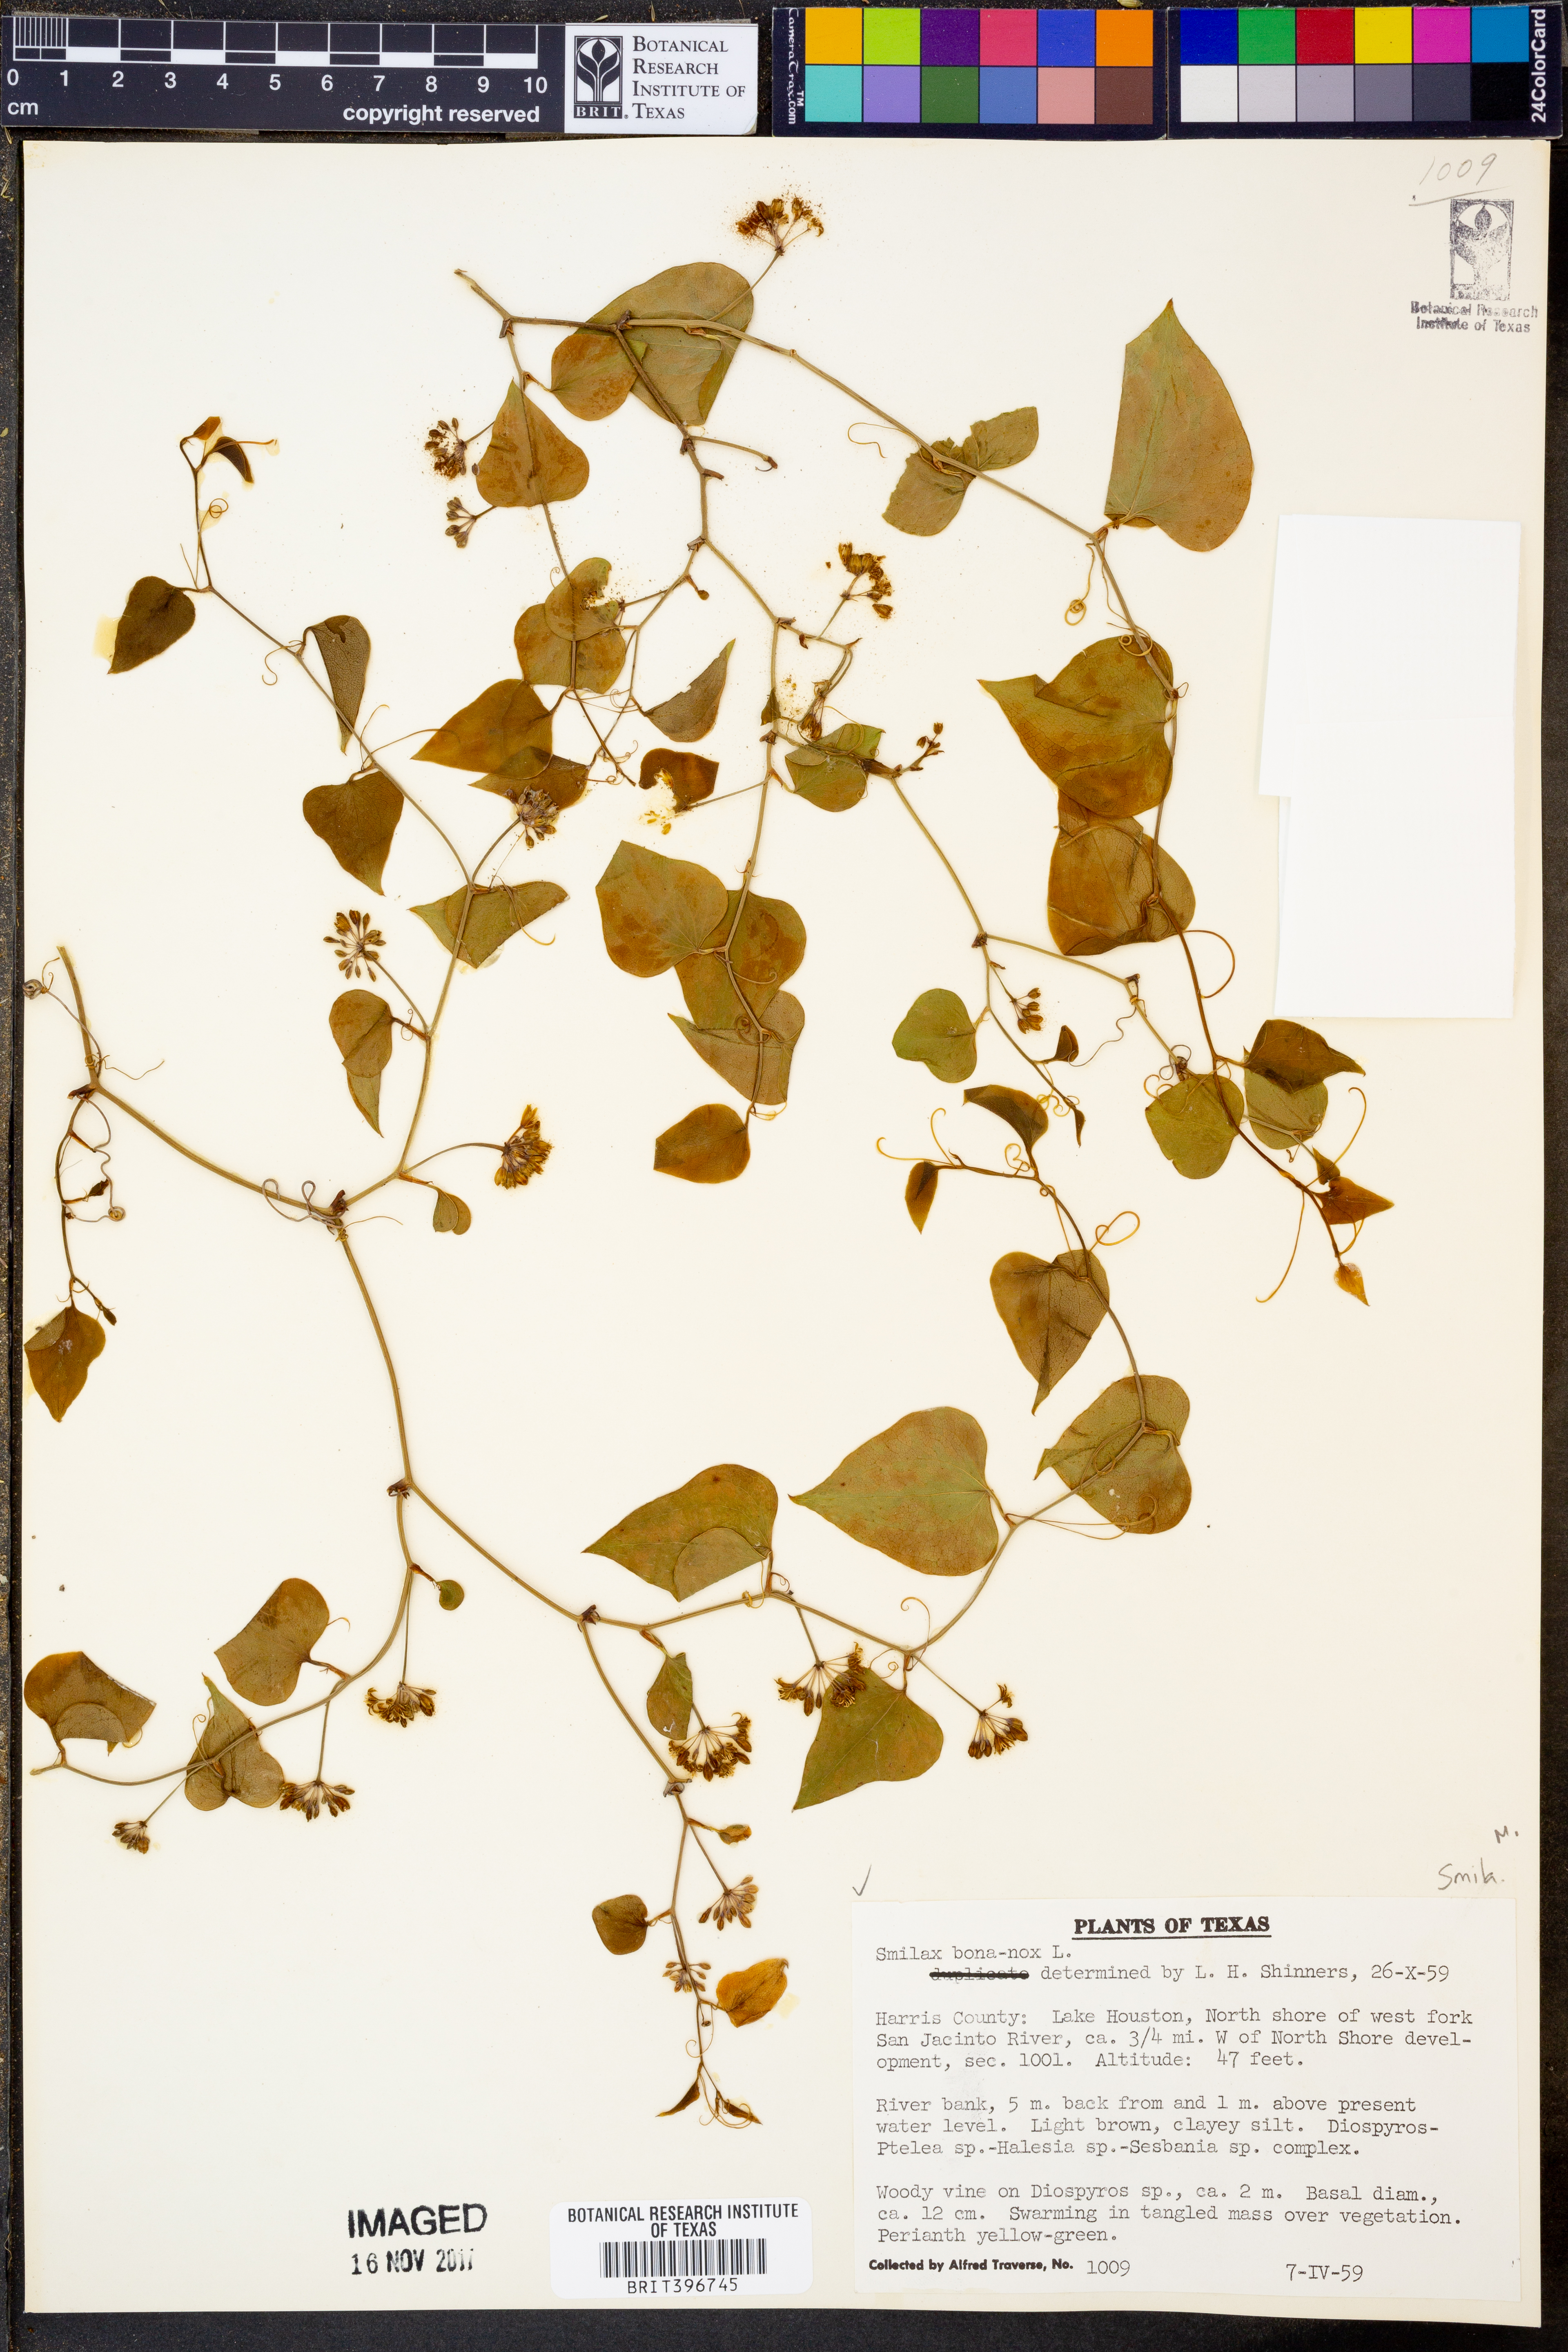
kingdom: Plantae
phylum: Tracheophyta
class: Liliopsida
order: Liliales
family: Smilacaceae
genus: Smilax
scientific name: Smilax bona-nox
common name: Catbrier
